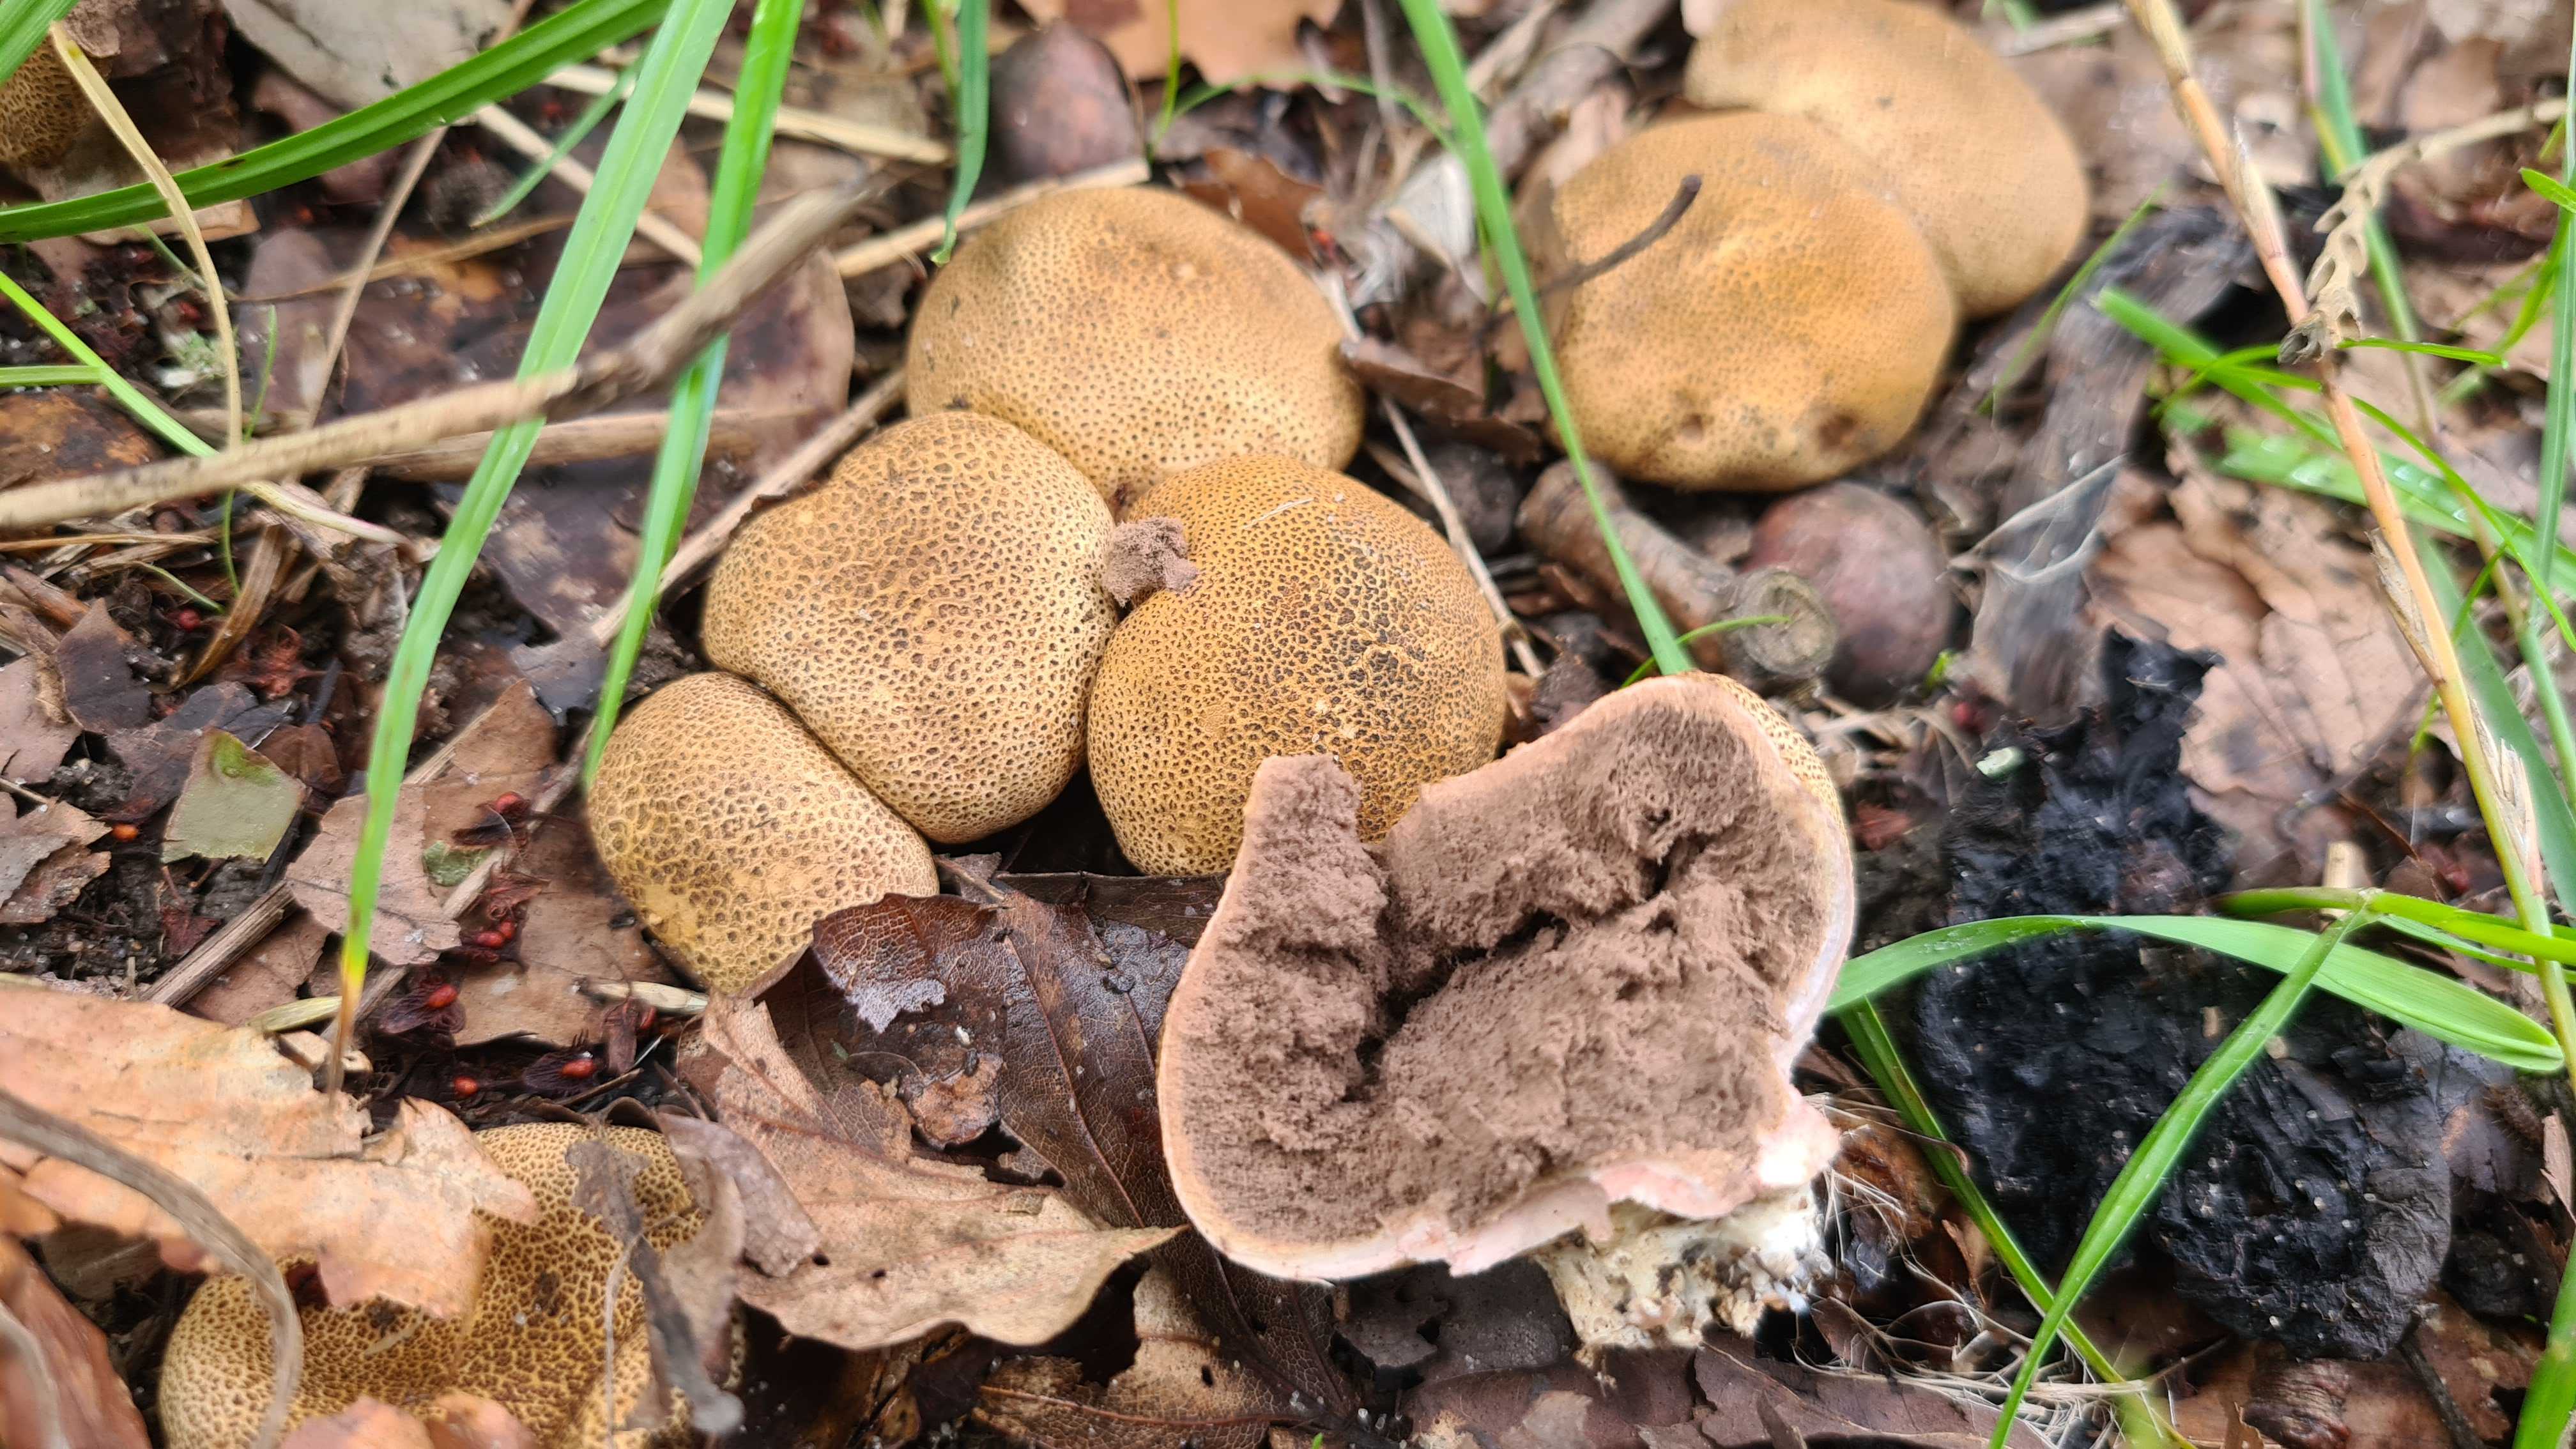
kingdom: Fungi
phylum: Basidiomycota
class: Agaricomycetes
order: Boletales
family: Sclerodermataceae
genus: Scleroderma
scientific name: Scleroderma areolatum
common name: plettet bruskbold
